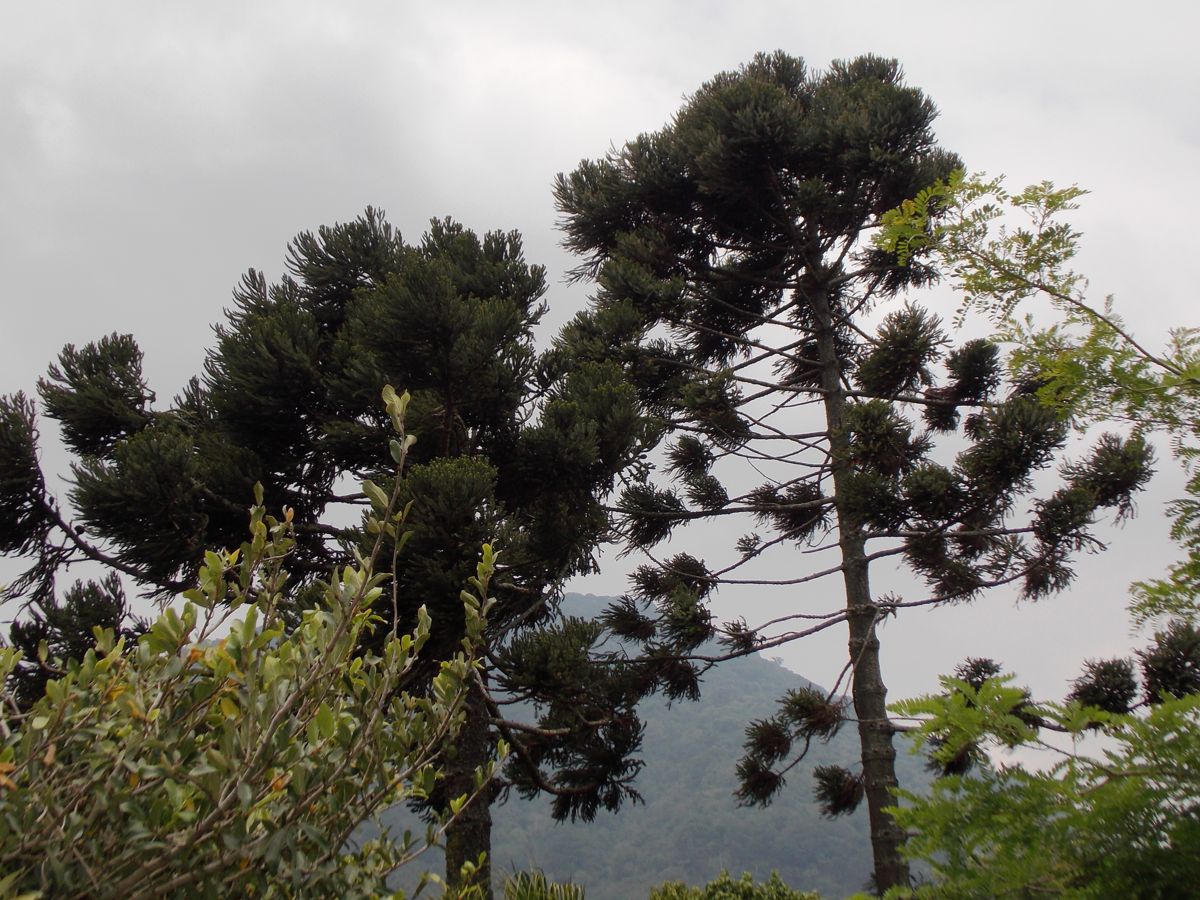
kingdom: Plantae
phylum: Tracheophyta
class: Pinopsida
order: Pinales
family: Araucariaceae
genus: Araucaria
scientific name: Araucaria angustifolia
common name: Candelabra tree
